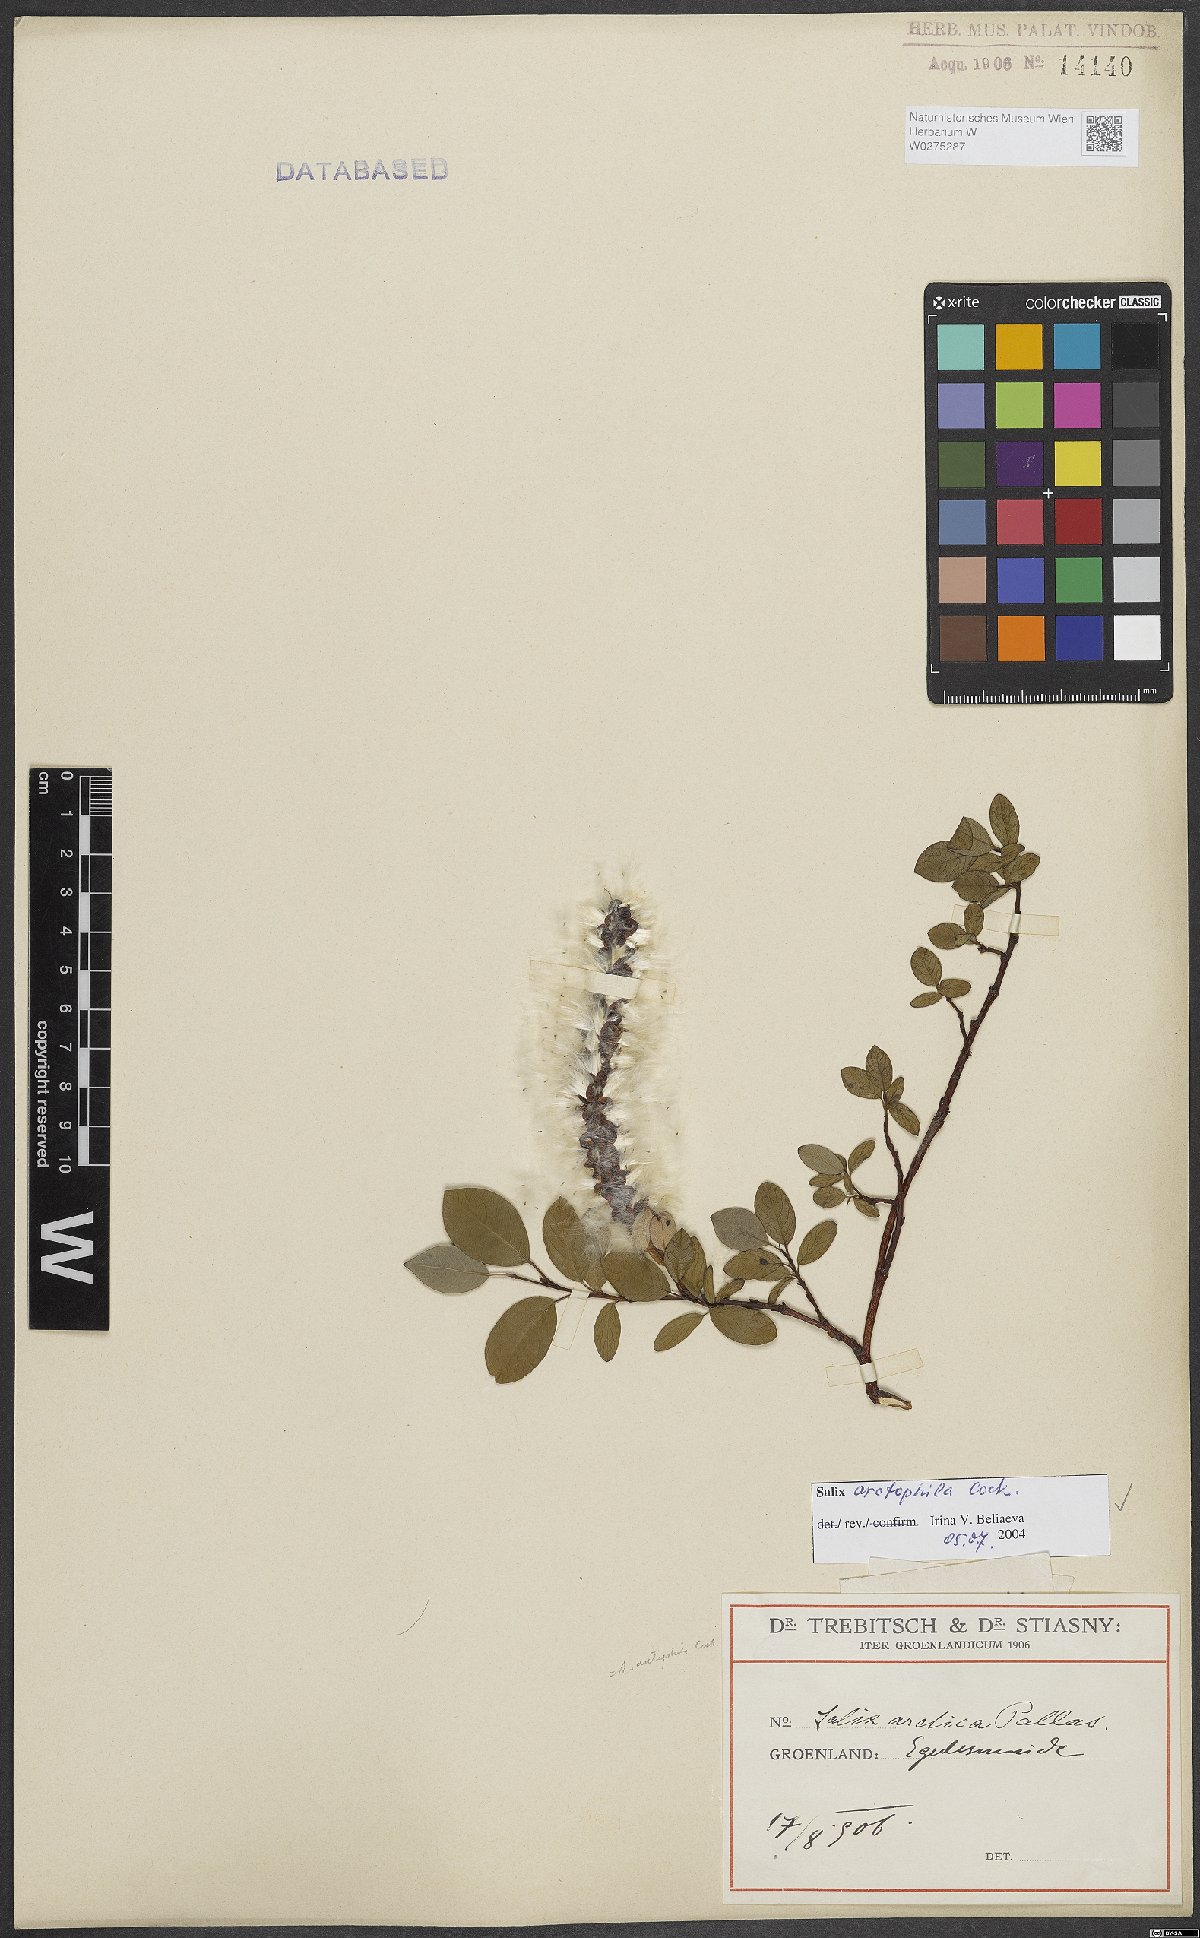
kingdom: Plantae
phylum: Tracheophyta
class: Magnoliopsida
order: Malpighiales
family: Salicaceae
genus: Salix
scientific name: Salix arctophila
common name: Greenland willow
